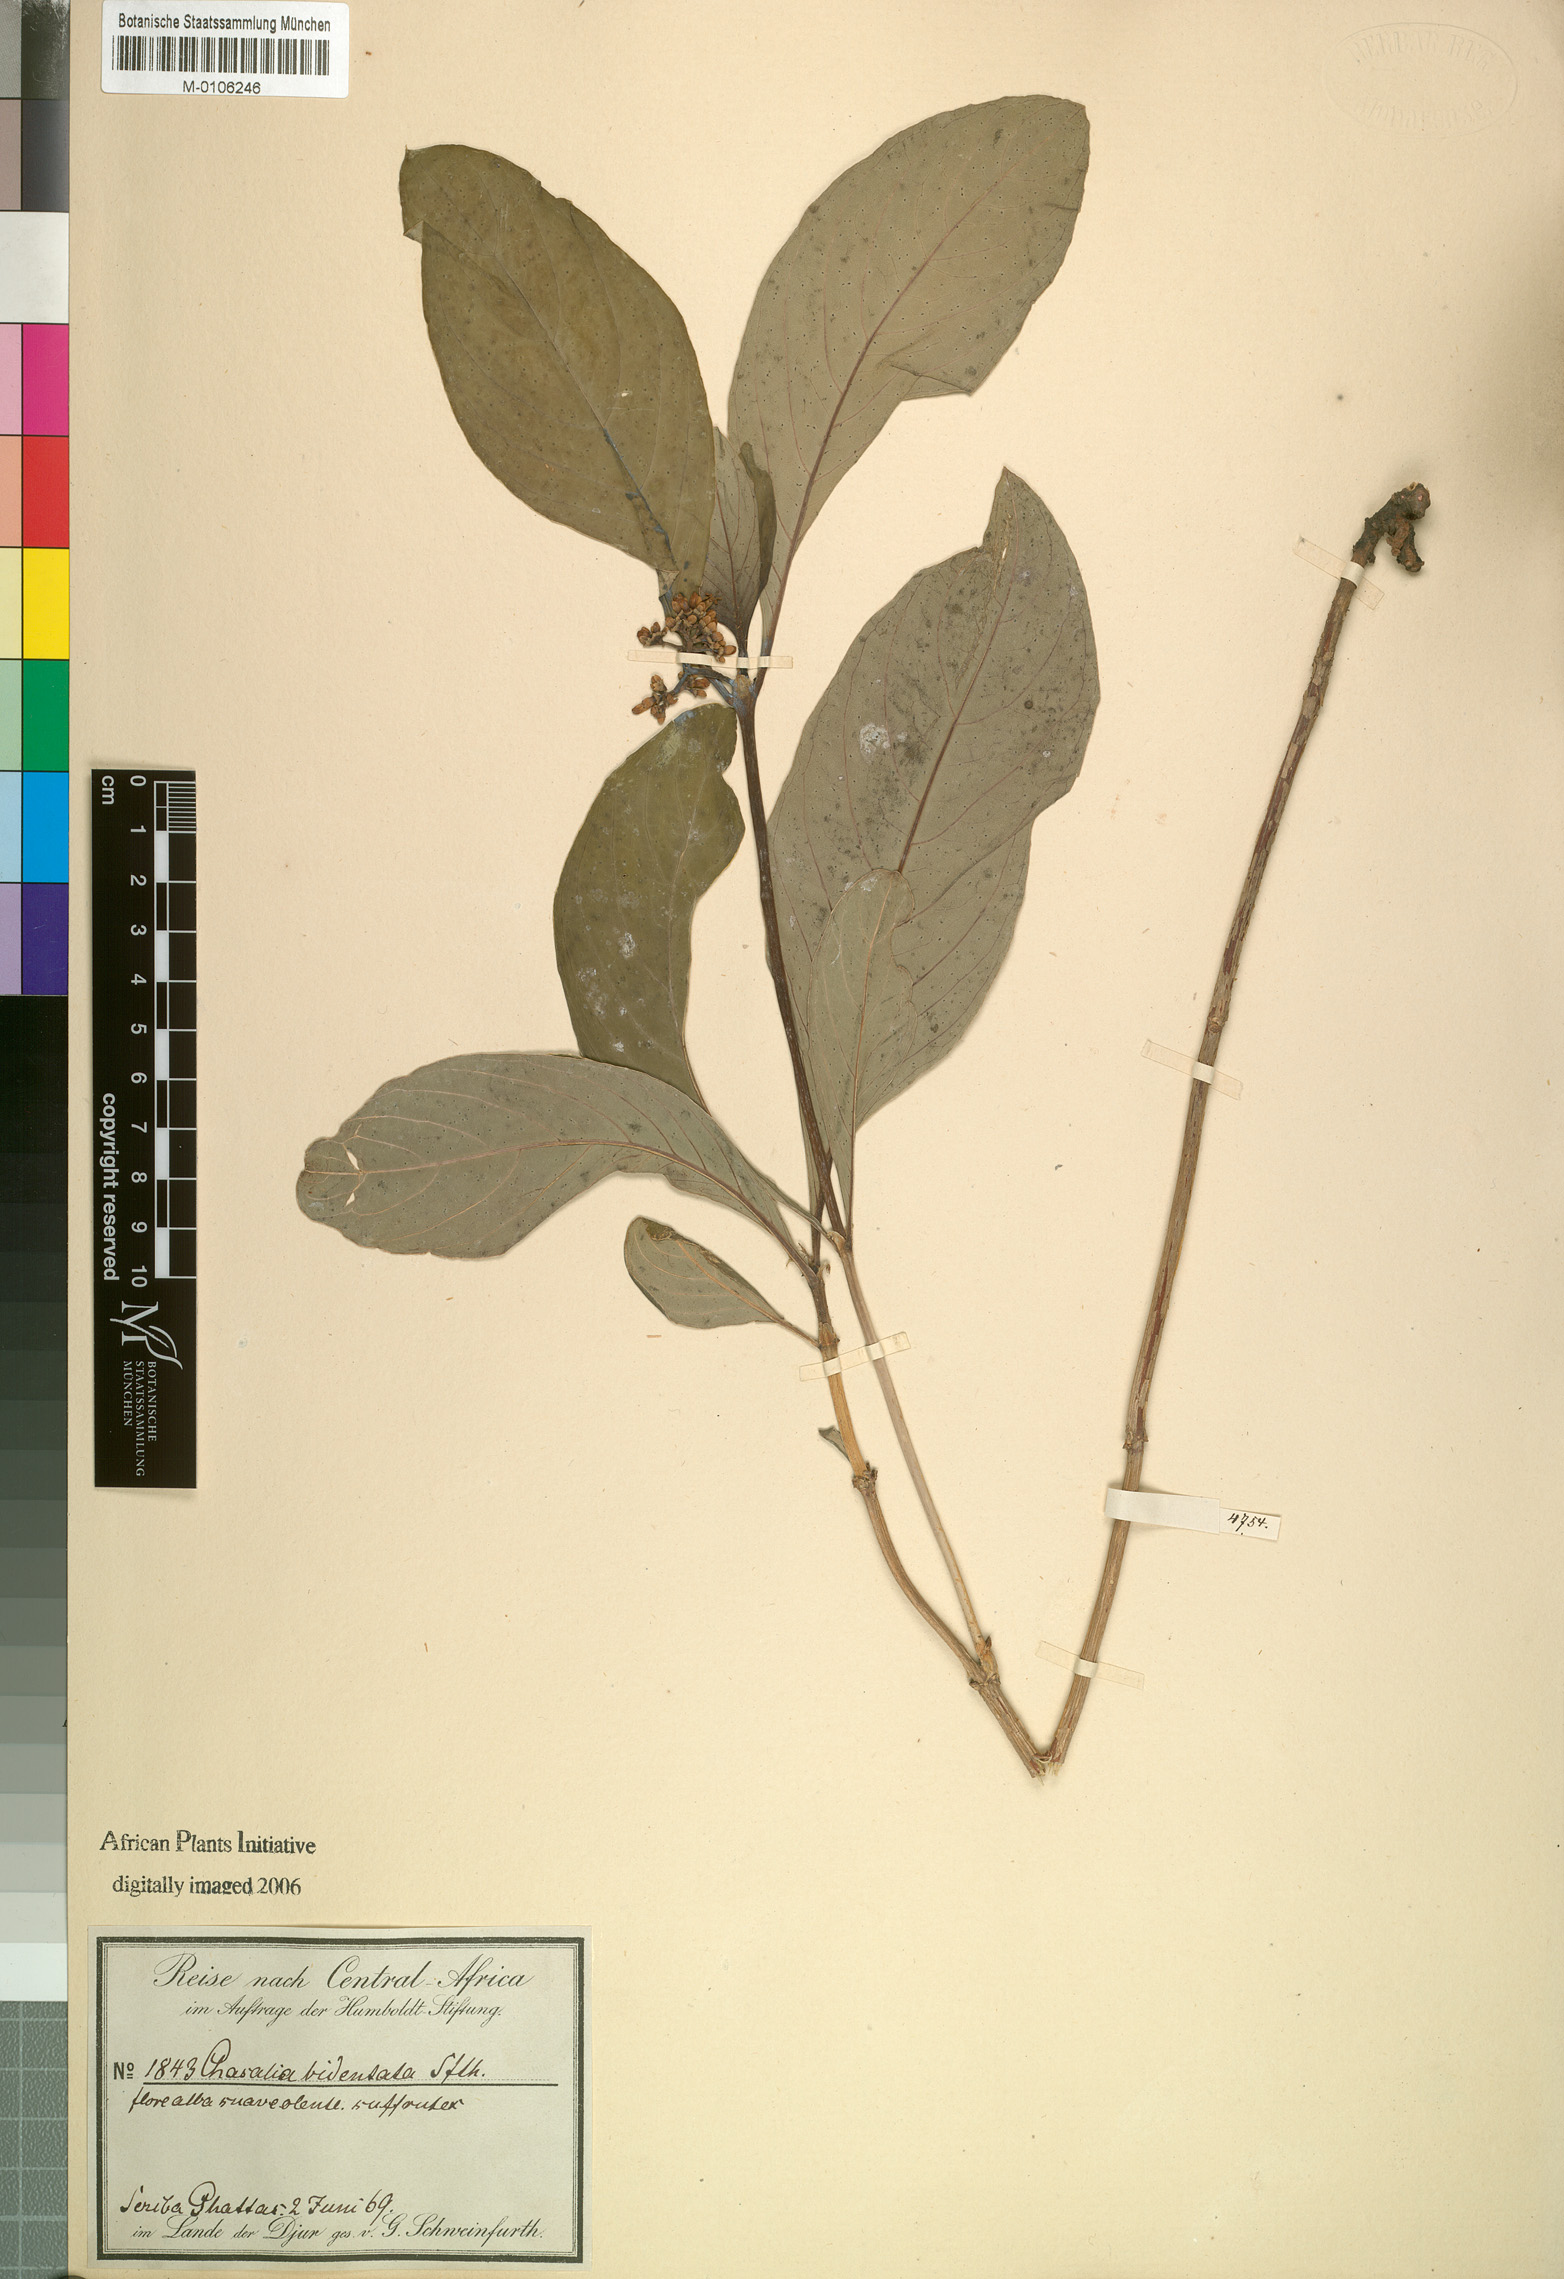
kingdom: Plantae
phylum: Tracheophyta
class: Magnoliopsida
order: Gentianales
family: Rubiaceae
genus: Psychotria
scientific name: Psychotria punctata
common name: Dotted wild coffee
